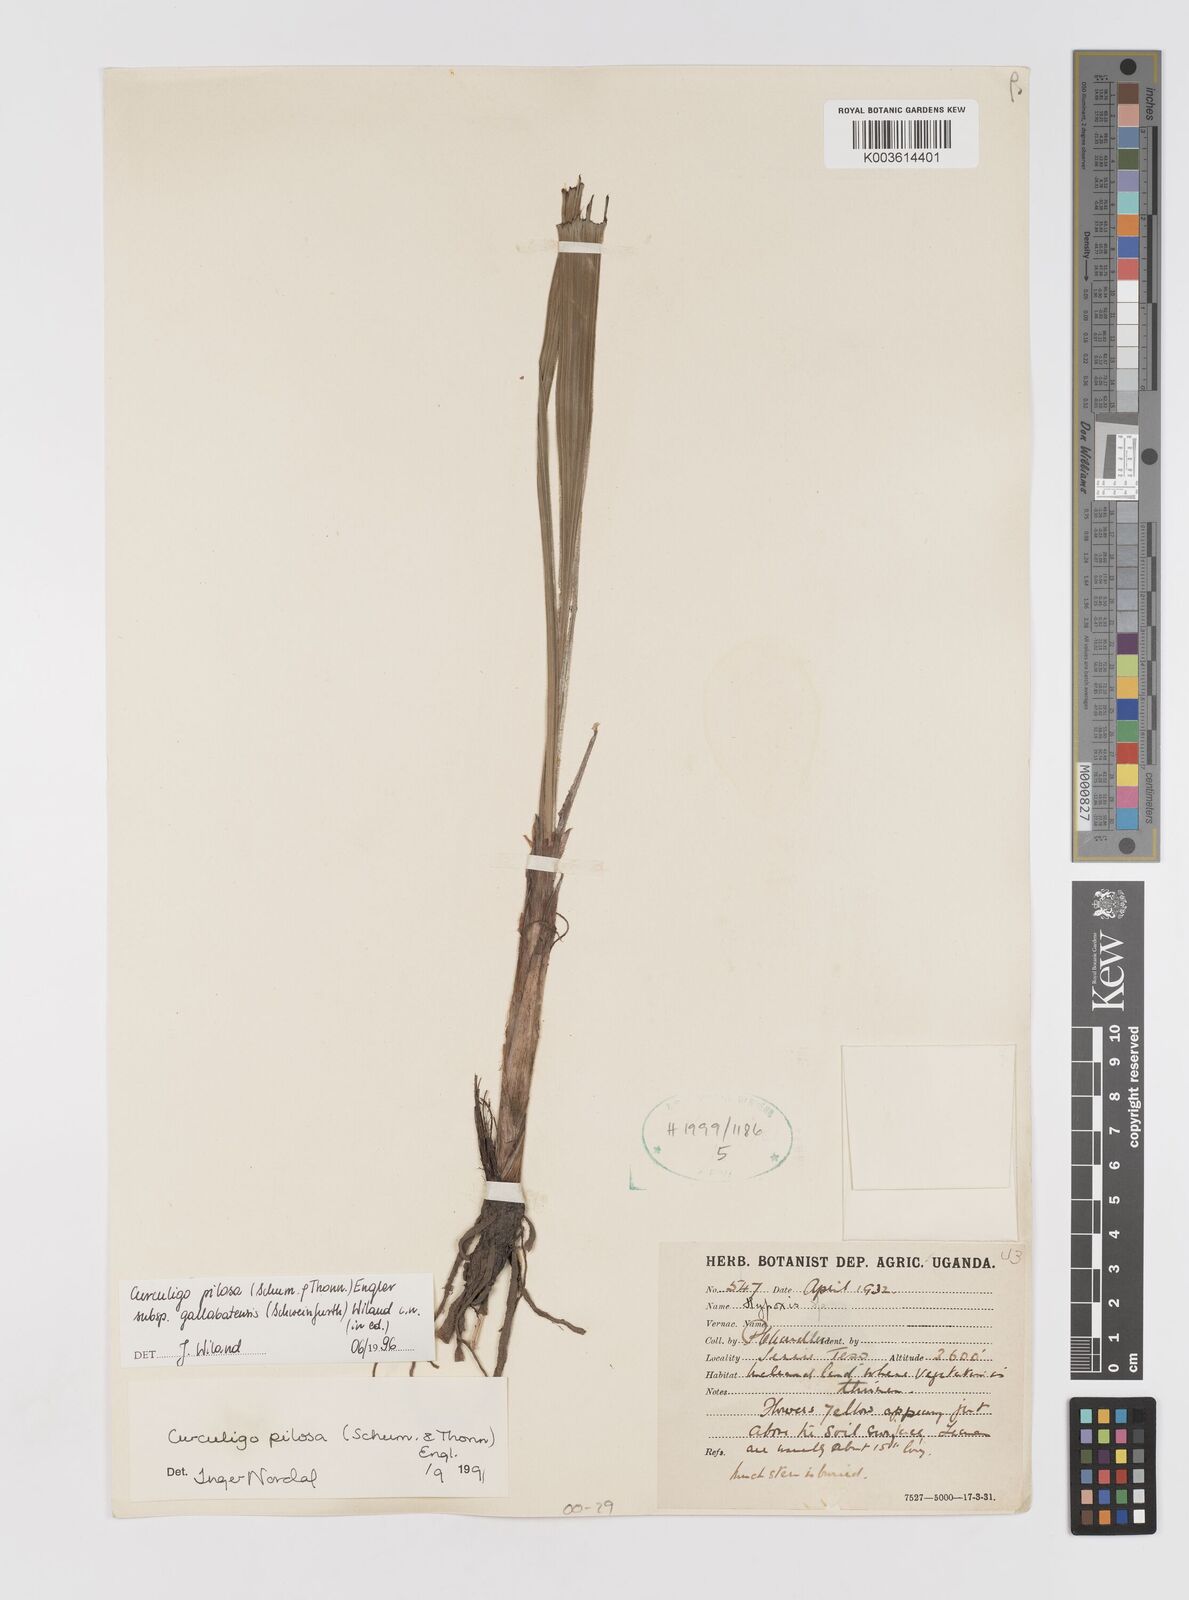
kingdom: Plantae
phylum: Tracheophyta
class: Liliopsida
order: Asparagales
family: Hypoxidaceae
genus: Curculigo
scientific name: Curculigo pilosa
